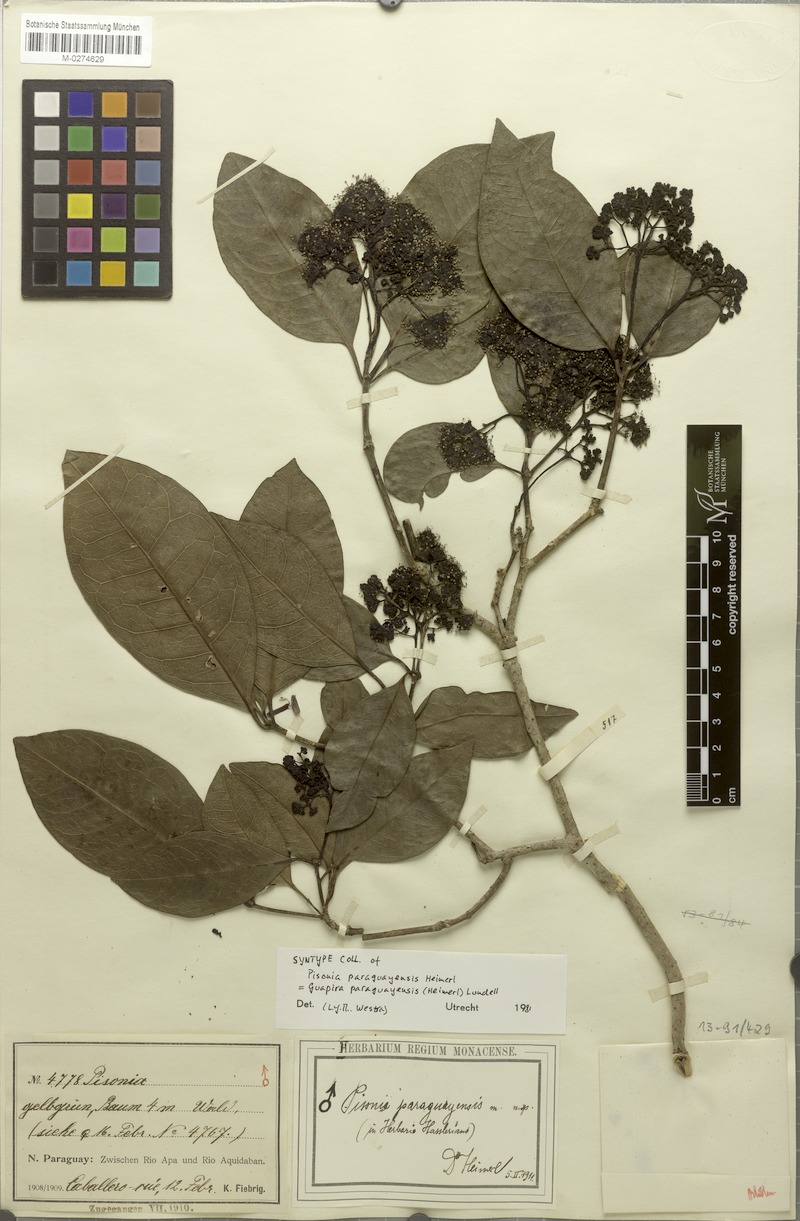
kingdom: Plantae
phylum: Tracheophyta
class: Magnoliopsida
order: Caryophyllales
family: Nyctaginaceae
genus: Guapira
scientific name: Guapira paraguayensis
